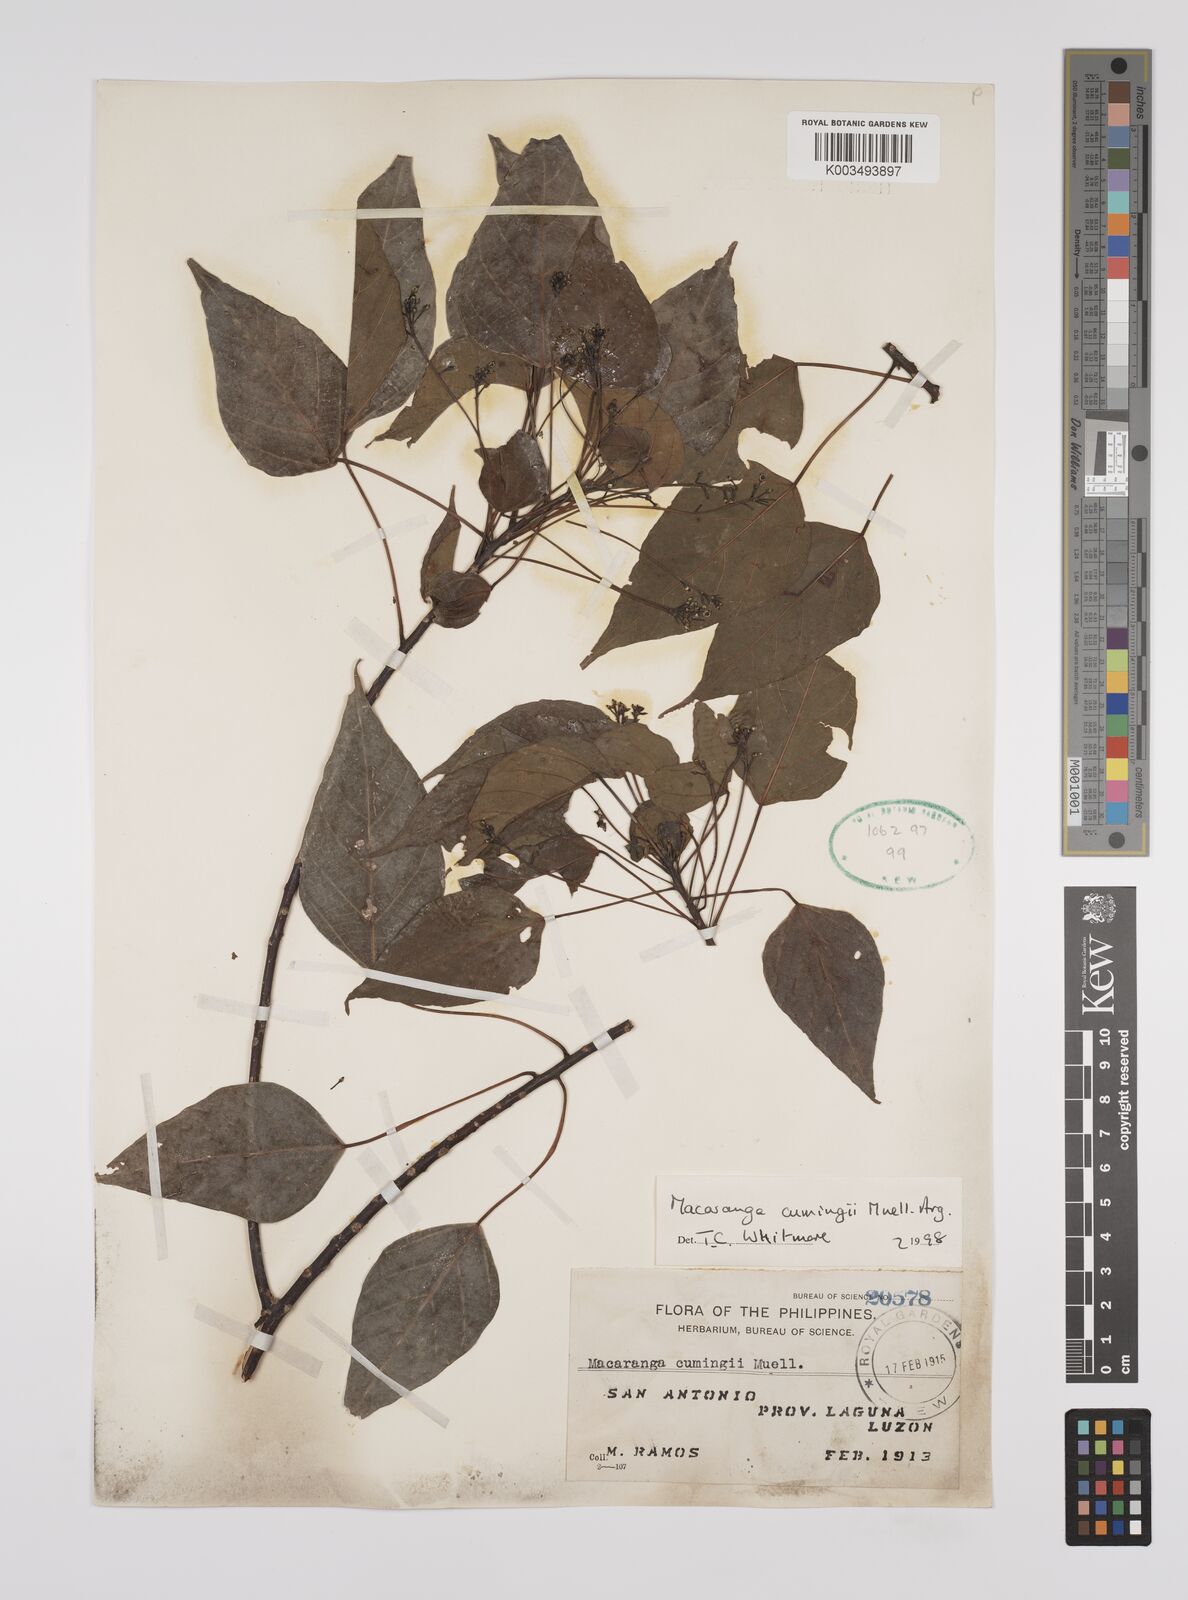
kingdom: Plantae
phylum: Tracheophyta
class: Magnoliopsida
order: Malpighiales
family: Euphorbiaceae
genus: Macaranga
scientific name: Macaranga cumingii
